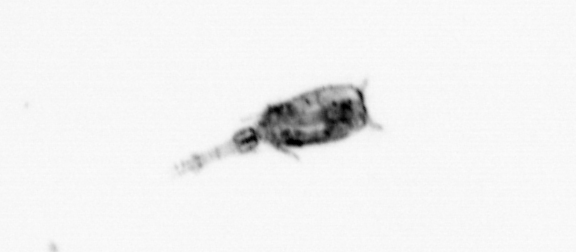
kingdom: Animalia
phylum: Arthropoda
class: Copepoda
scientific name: Copepoda
